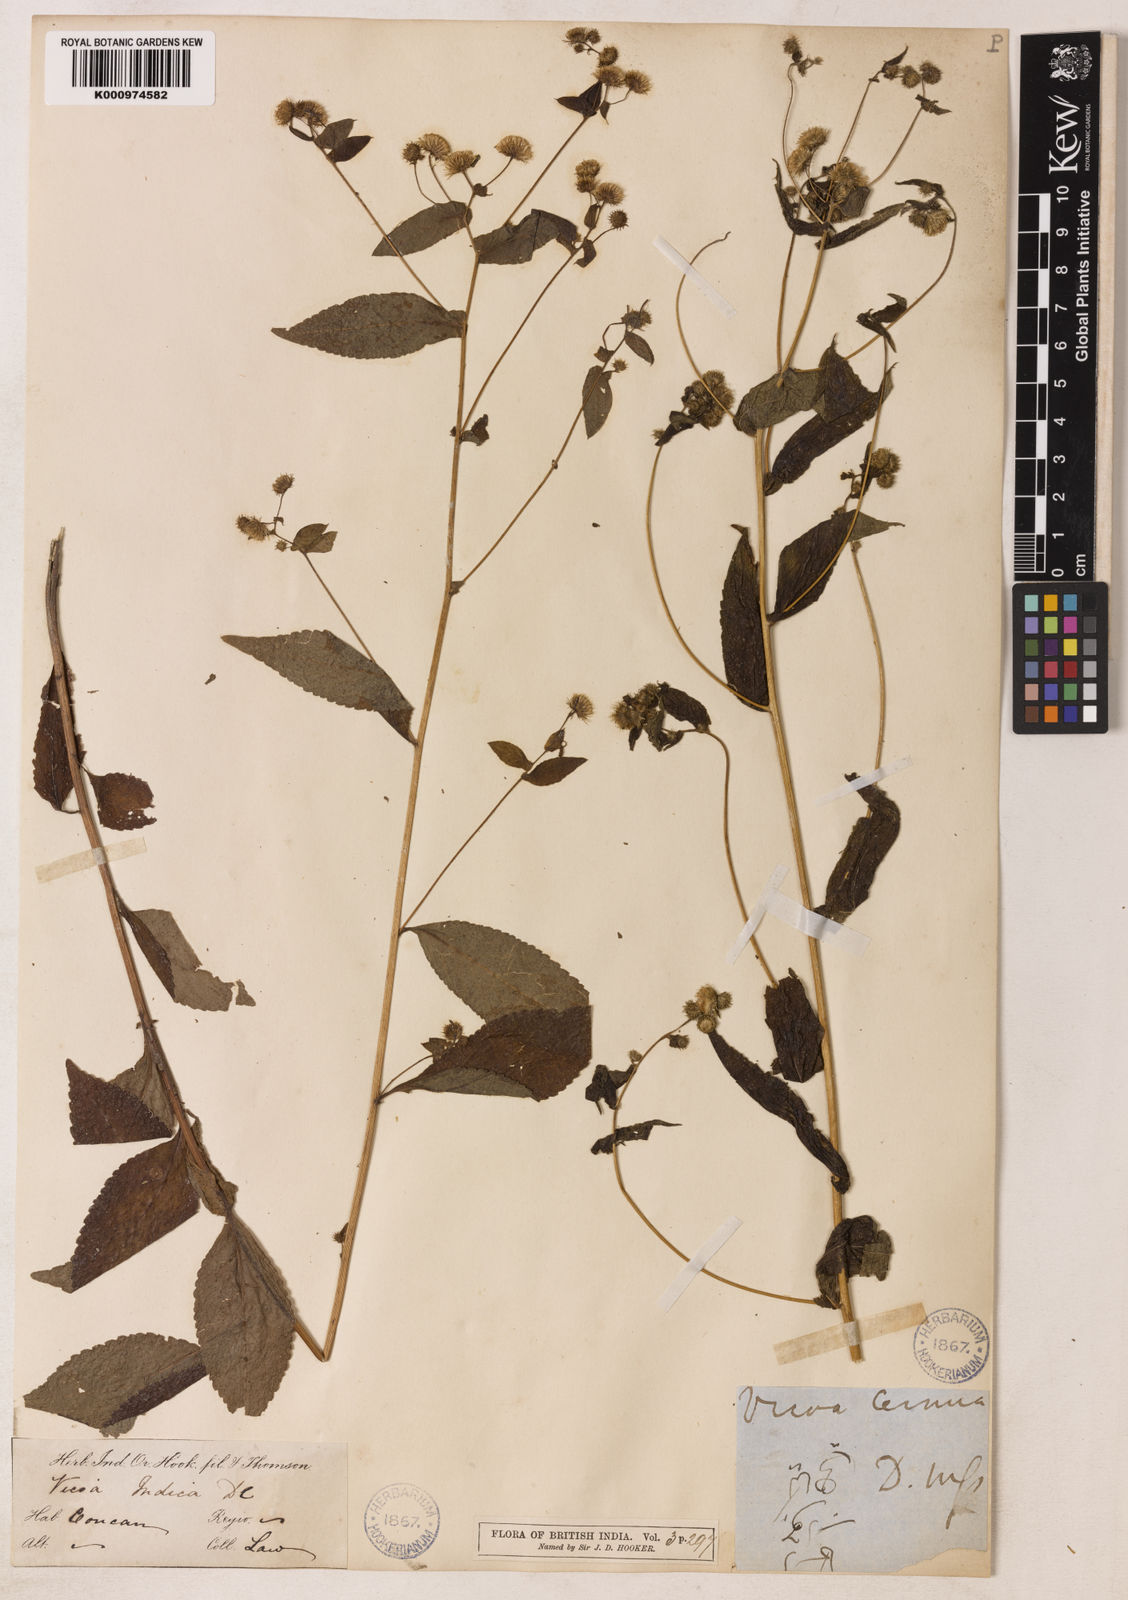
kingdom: Plantae
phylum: Tracheophyta
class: Magnoliopsida
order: Asterales
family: Asteraceae
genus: Vicoa
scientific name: Vicoa cernua
